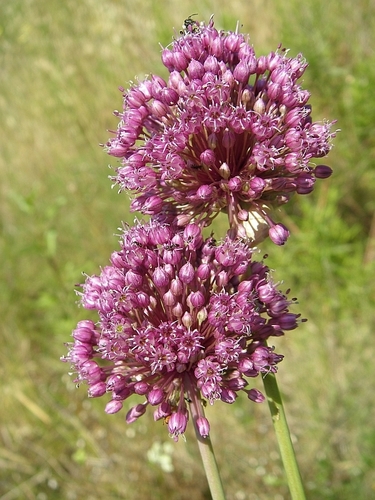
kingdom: Plantae
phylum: Tracheophyta
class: Liliopsida
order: Asparagales
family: Amaryllidaceae
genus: Allium
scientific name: Allium ampeloprasum
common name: Wild leek
